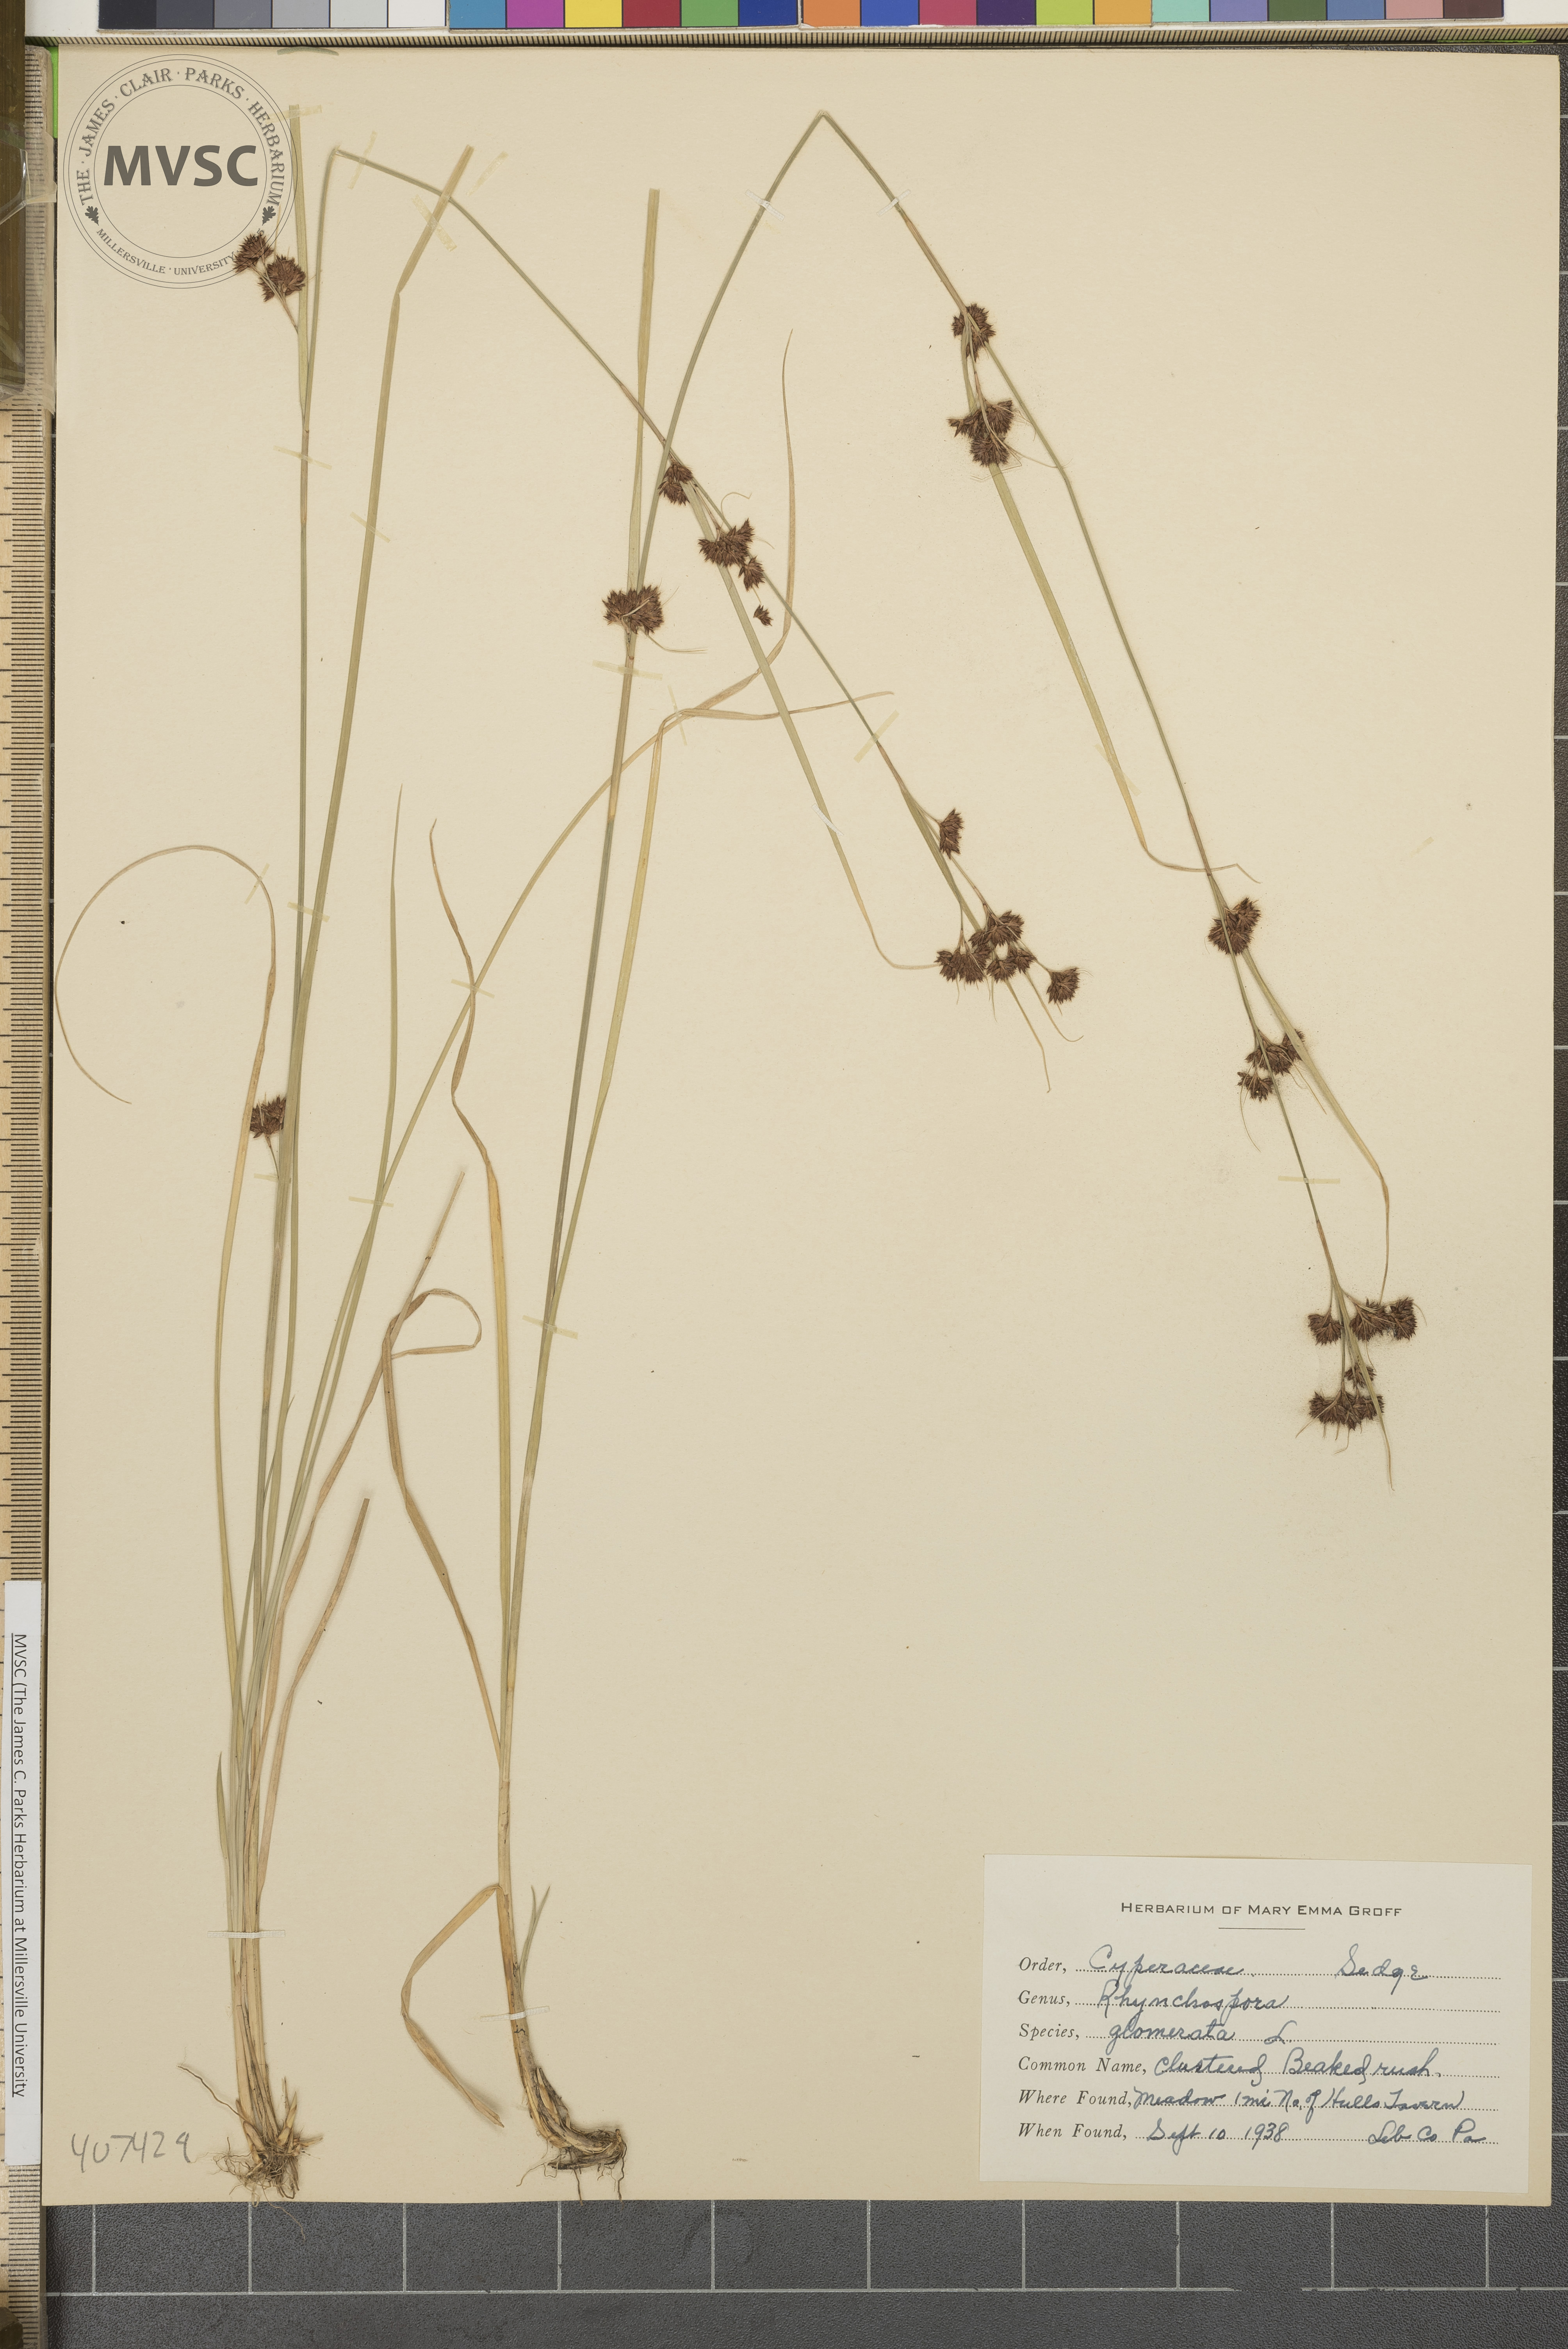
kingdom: Plantae
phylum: Tracheophyta
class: Liliopsida
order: Poales
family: Cyperaceae
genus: Rhynchospora
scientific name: Rhynchospora capitellata
